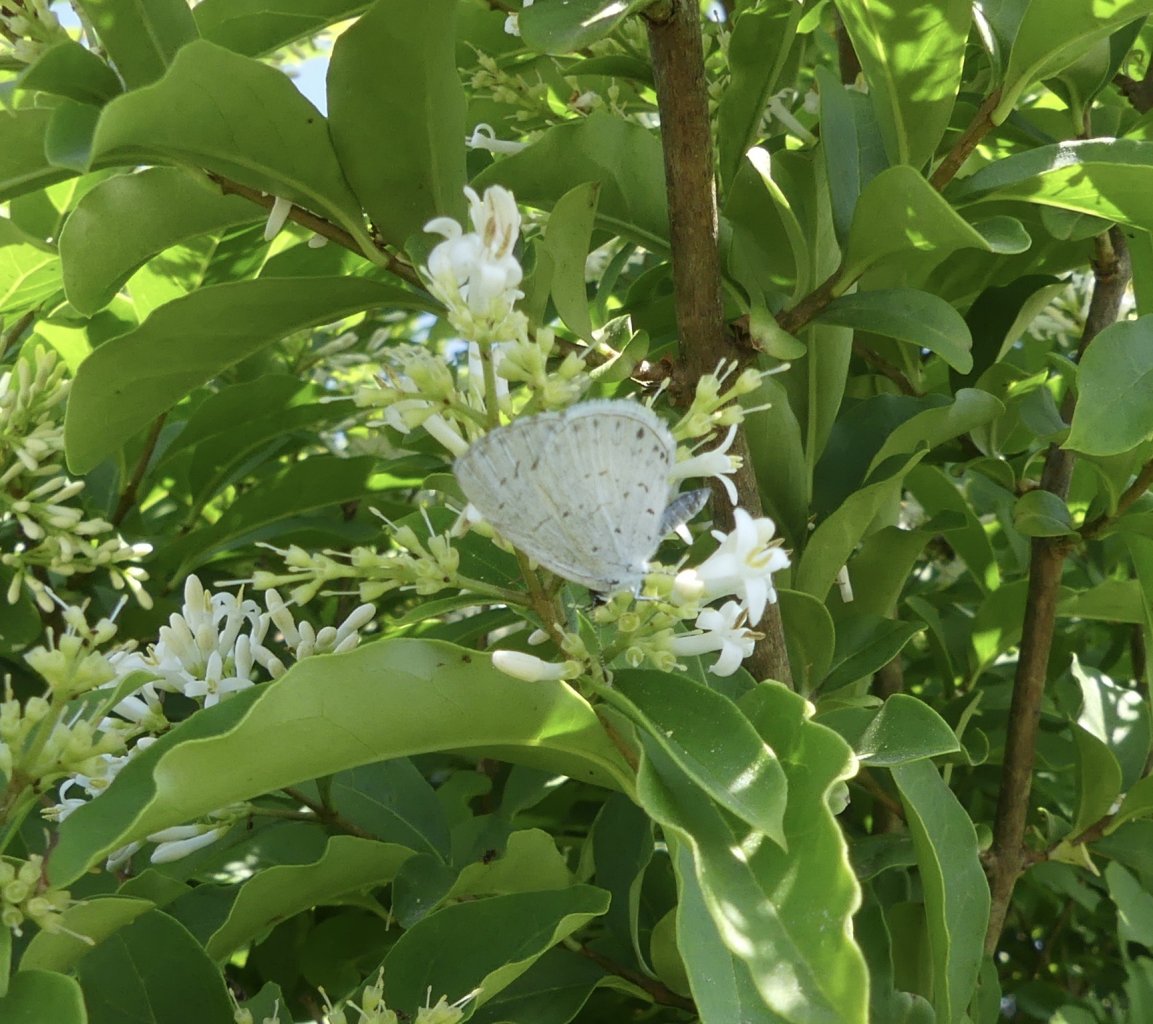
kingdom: Animalia
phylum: Arthropoda
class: Insecta
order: Lepidoptera
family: Lycaenidae
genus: Cyaniris
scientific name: Cyaniris neglecta
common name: Summer Azure
